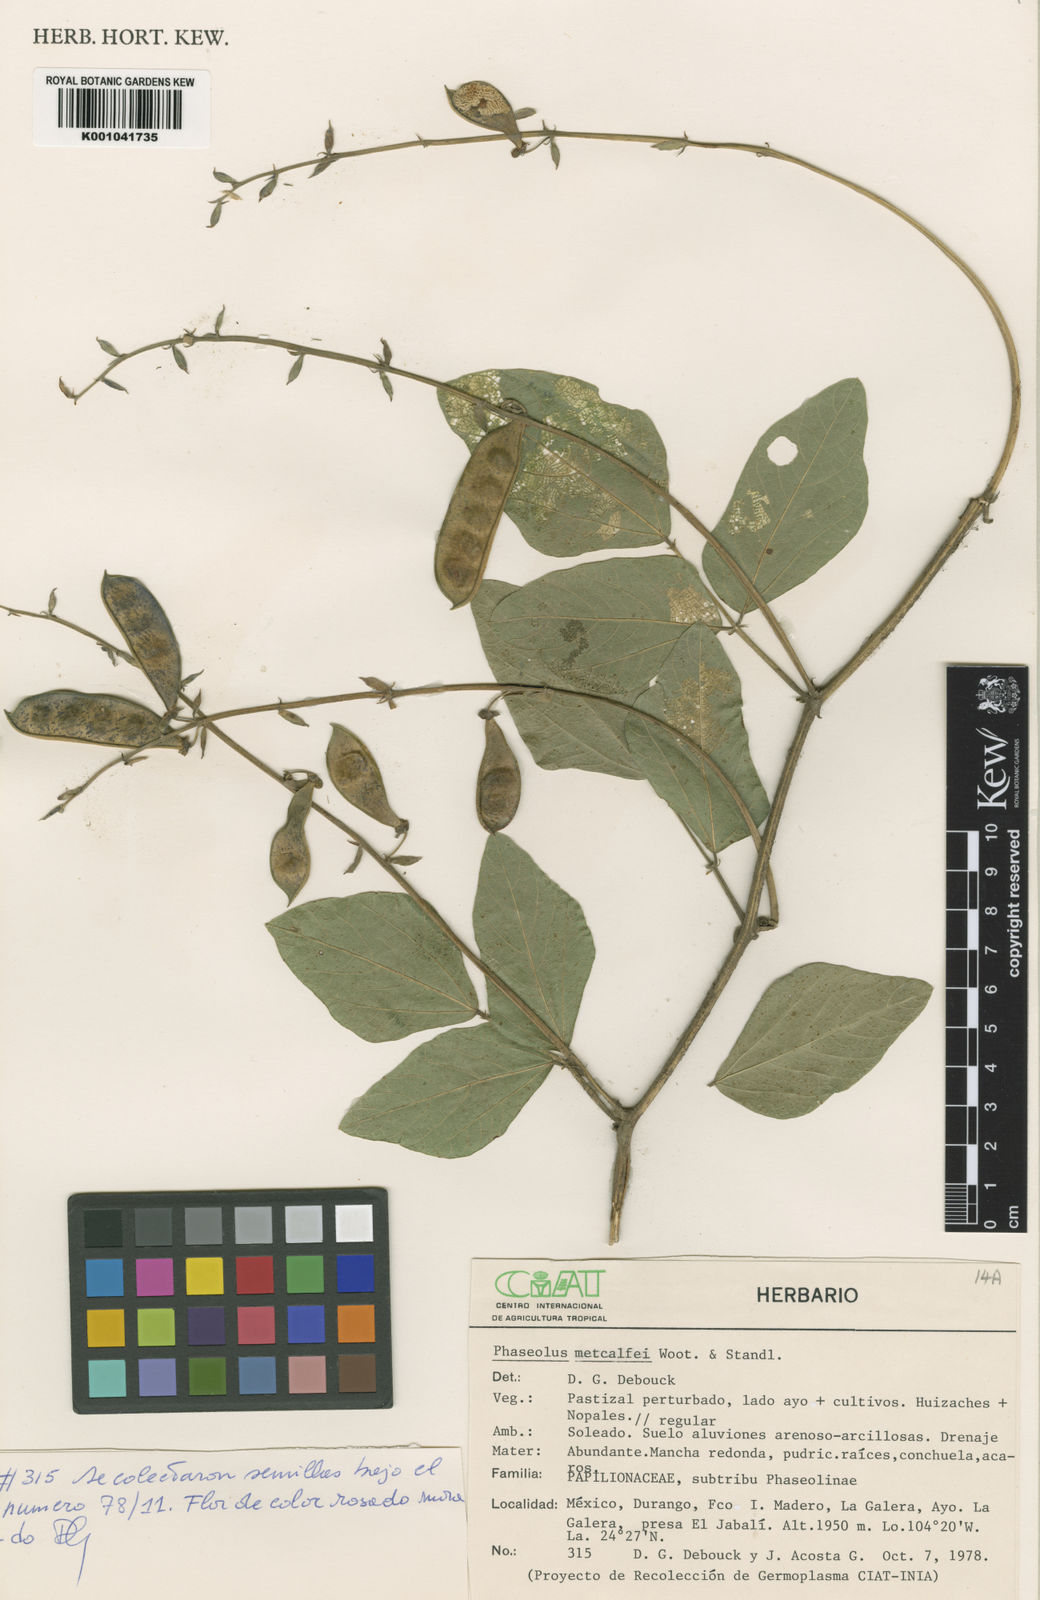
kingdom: Plantae
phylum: Tracheophyta
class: Magnoliopsida
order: Fabales
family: Fabaceae
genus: Phaseolus
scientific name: Phaseolus
